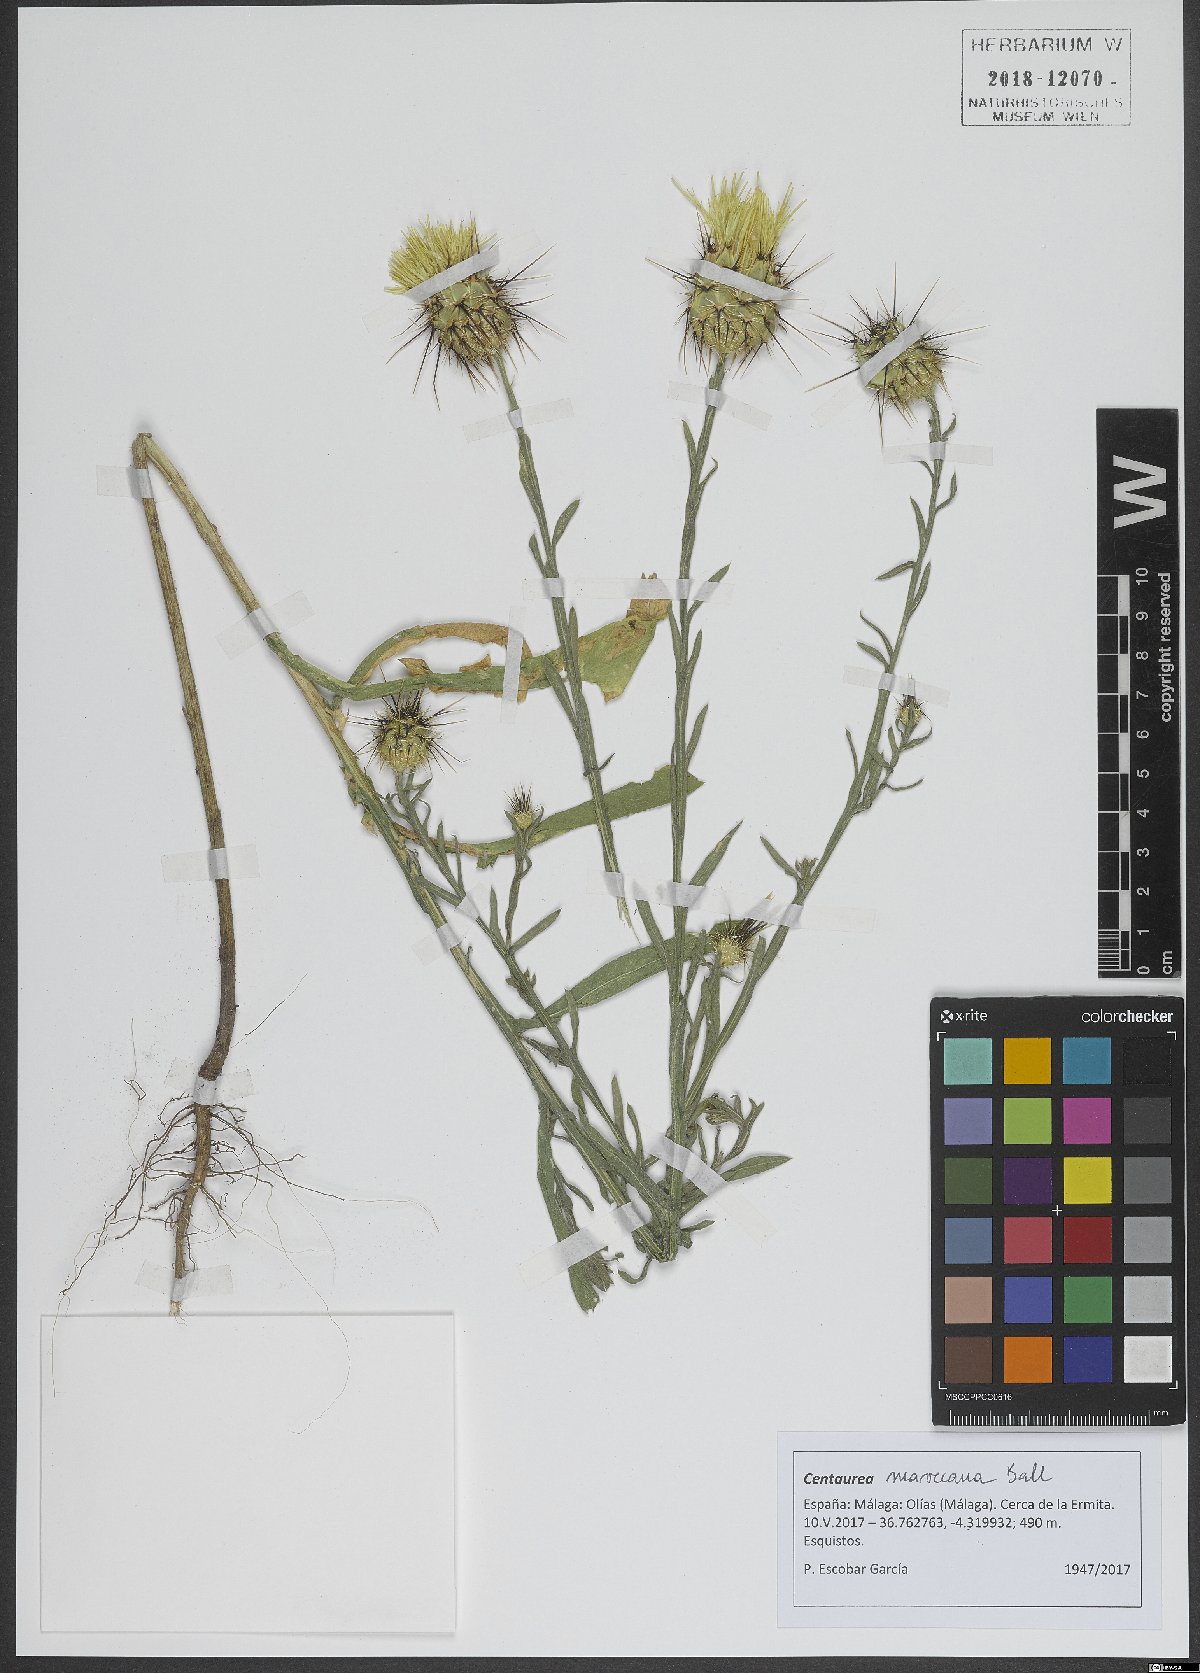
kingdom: Plantae
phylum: Tracheophyta
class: Magnoliopsida
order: Asterales
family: Asteraceae
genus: Centaurea
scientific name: Centaurea maroccana
